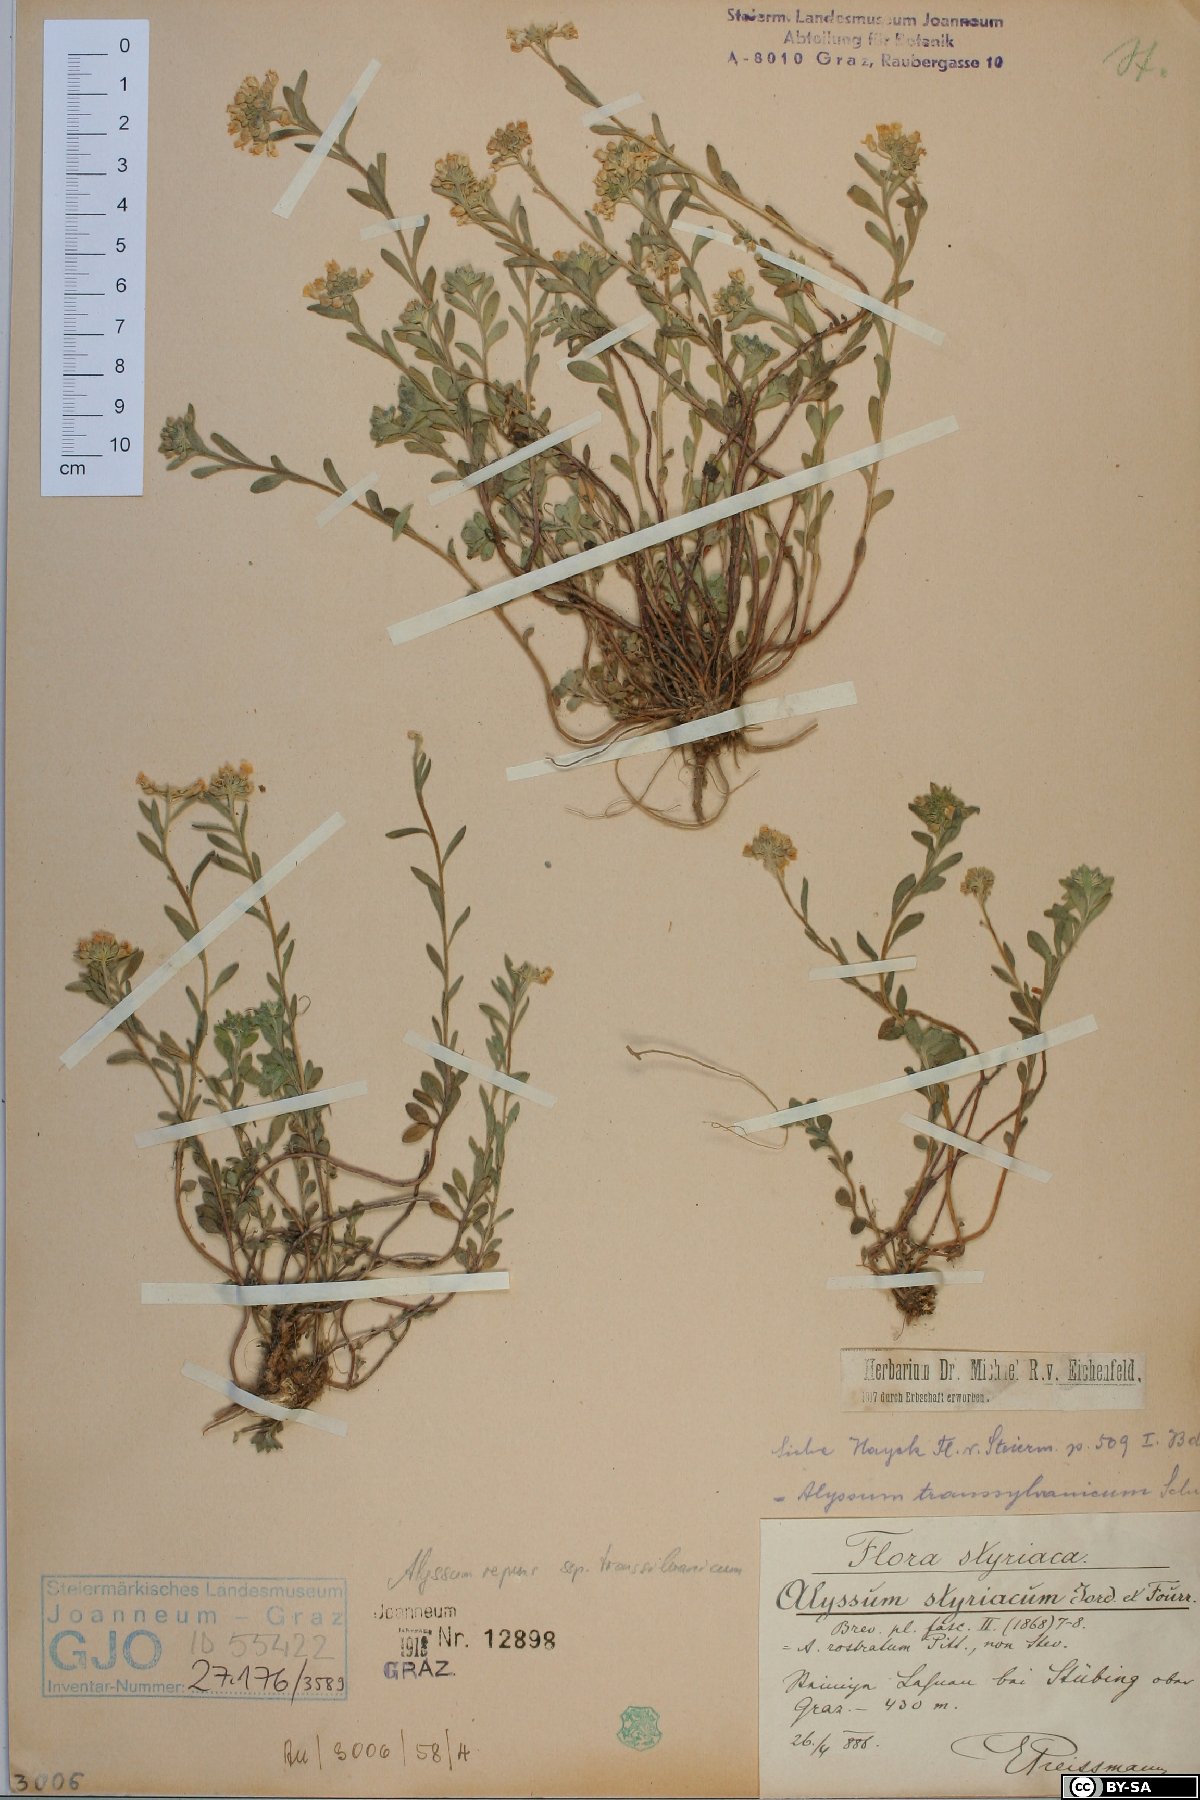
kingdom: Plantae
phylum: Tracheophyta
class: Magnoliopsida
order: Brassicales
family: Brassicaceae
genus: Alyssum
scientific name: Alyssum repens
